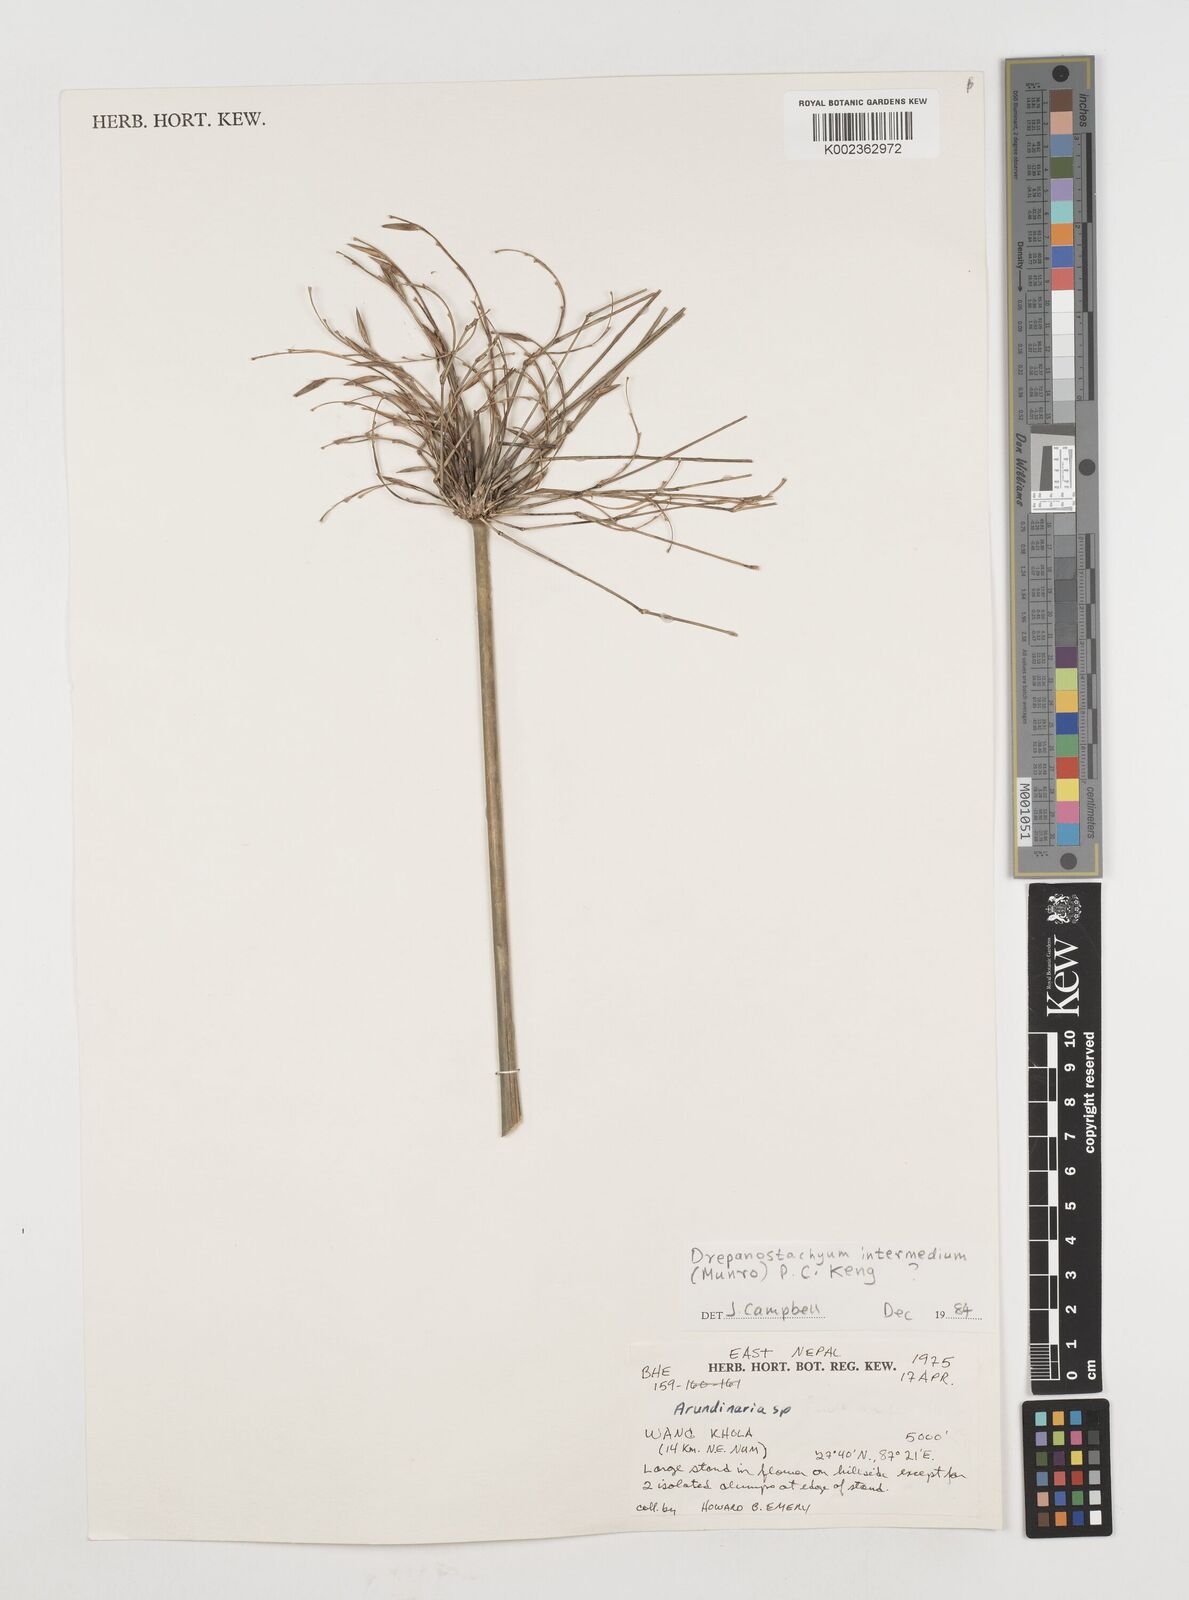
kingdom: Plantae
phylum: Tracheophyta
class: Liliopsida
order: Poales
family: Poaceae
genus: Drepanostachyum
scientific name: Drepanostachyum intermedium
